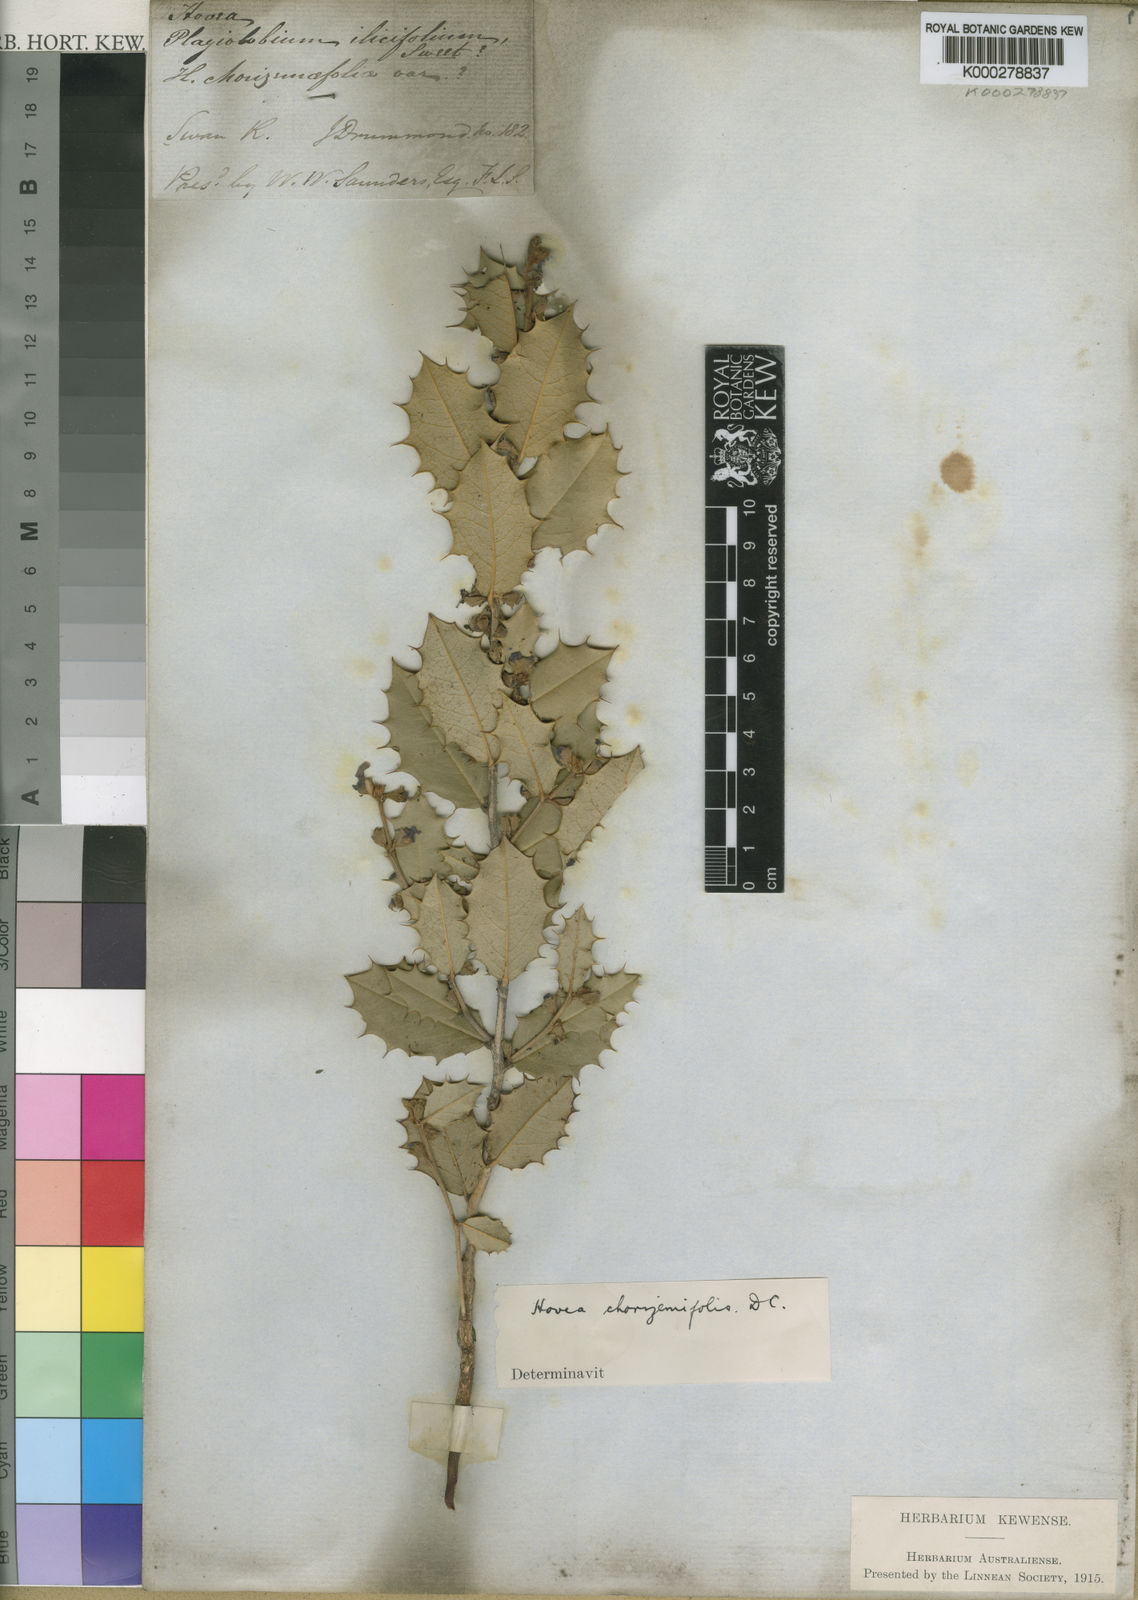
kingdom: Plantae
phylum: Tracheophyta
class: Magnoliopsida
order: Fabales
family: Fabaceae
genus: Hovea
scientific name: Hovea chorizemifolia
